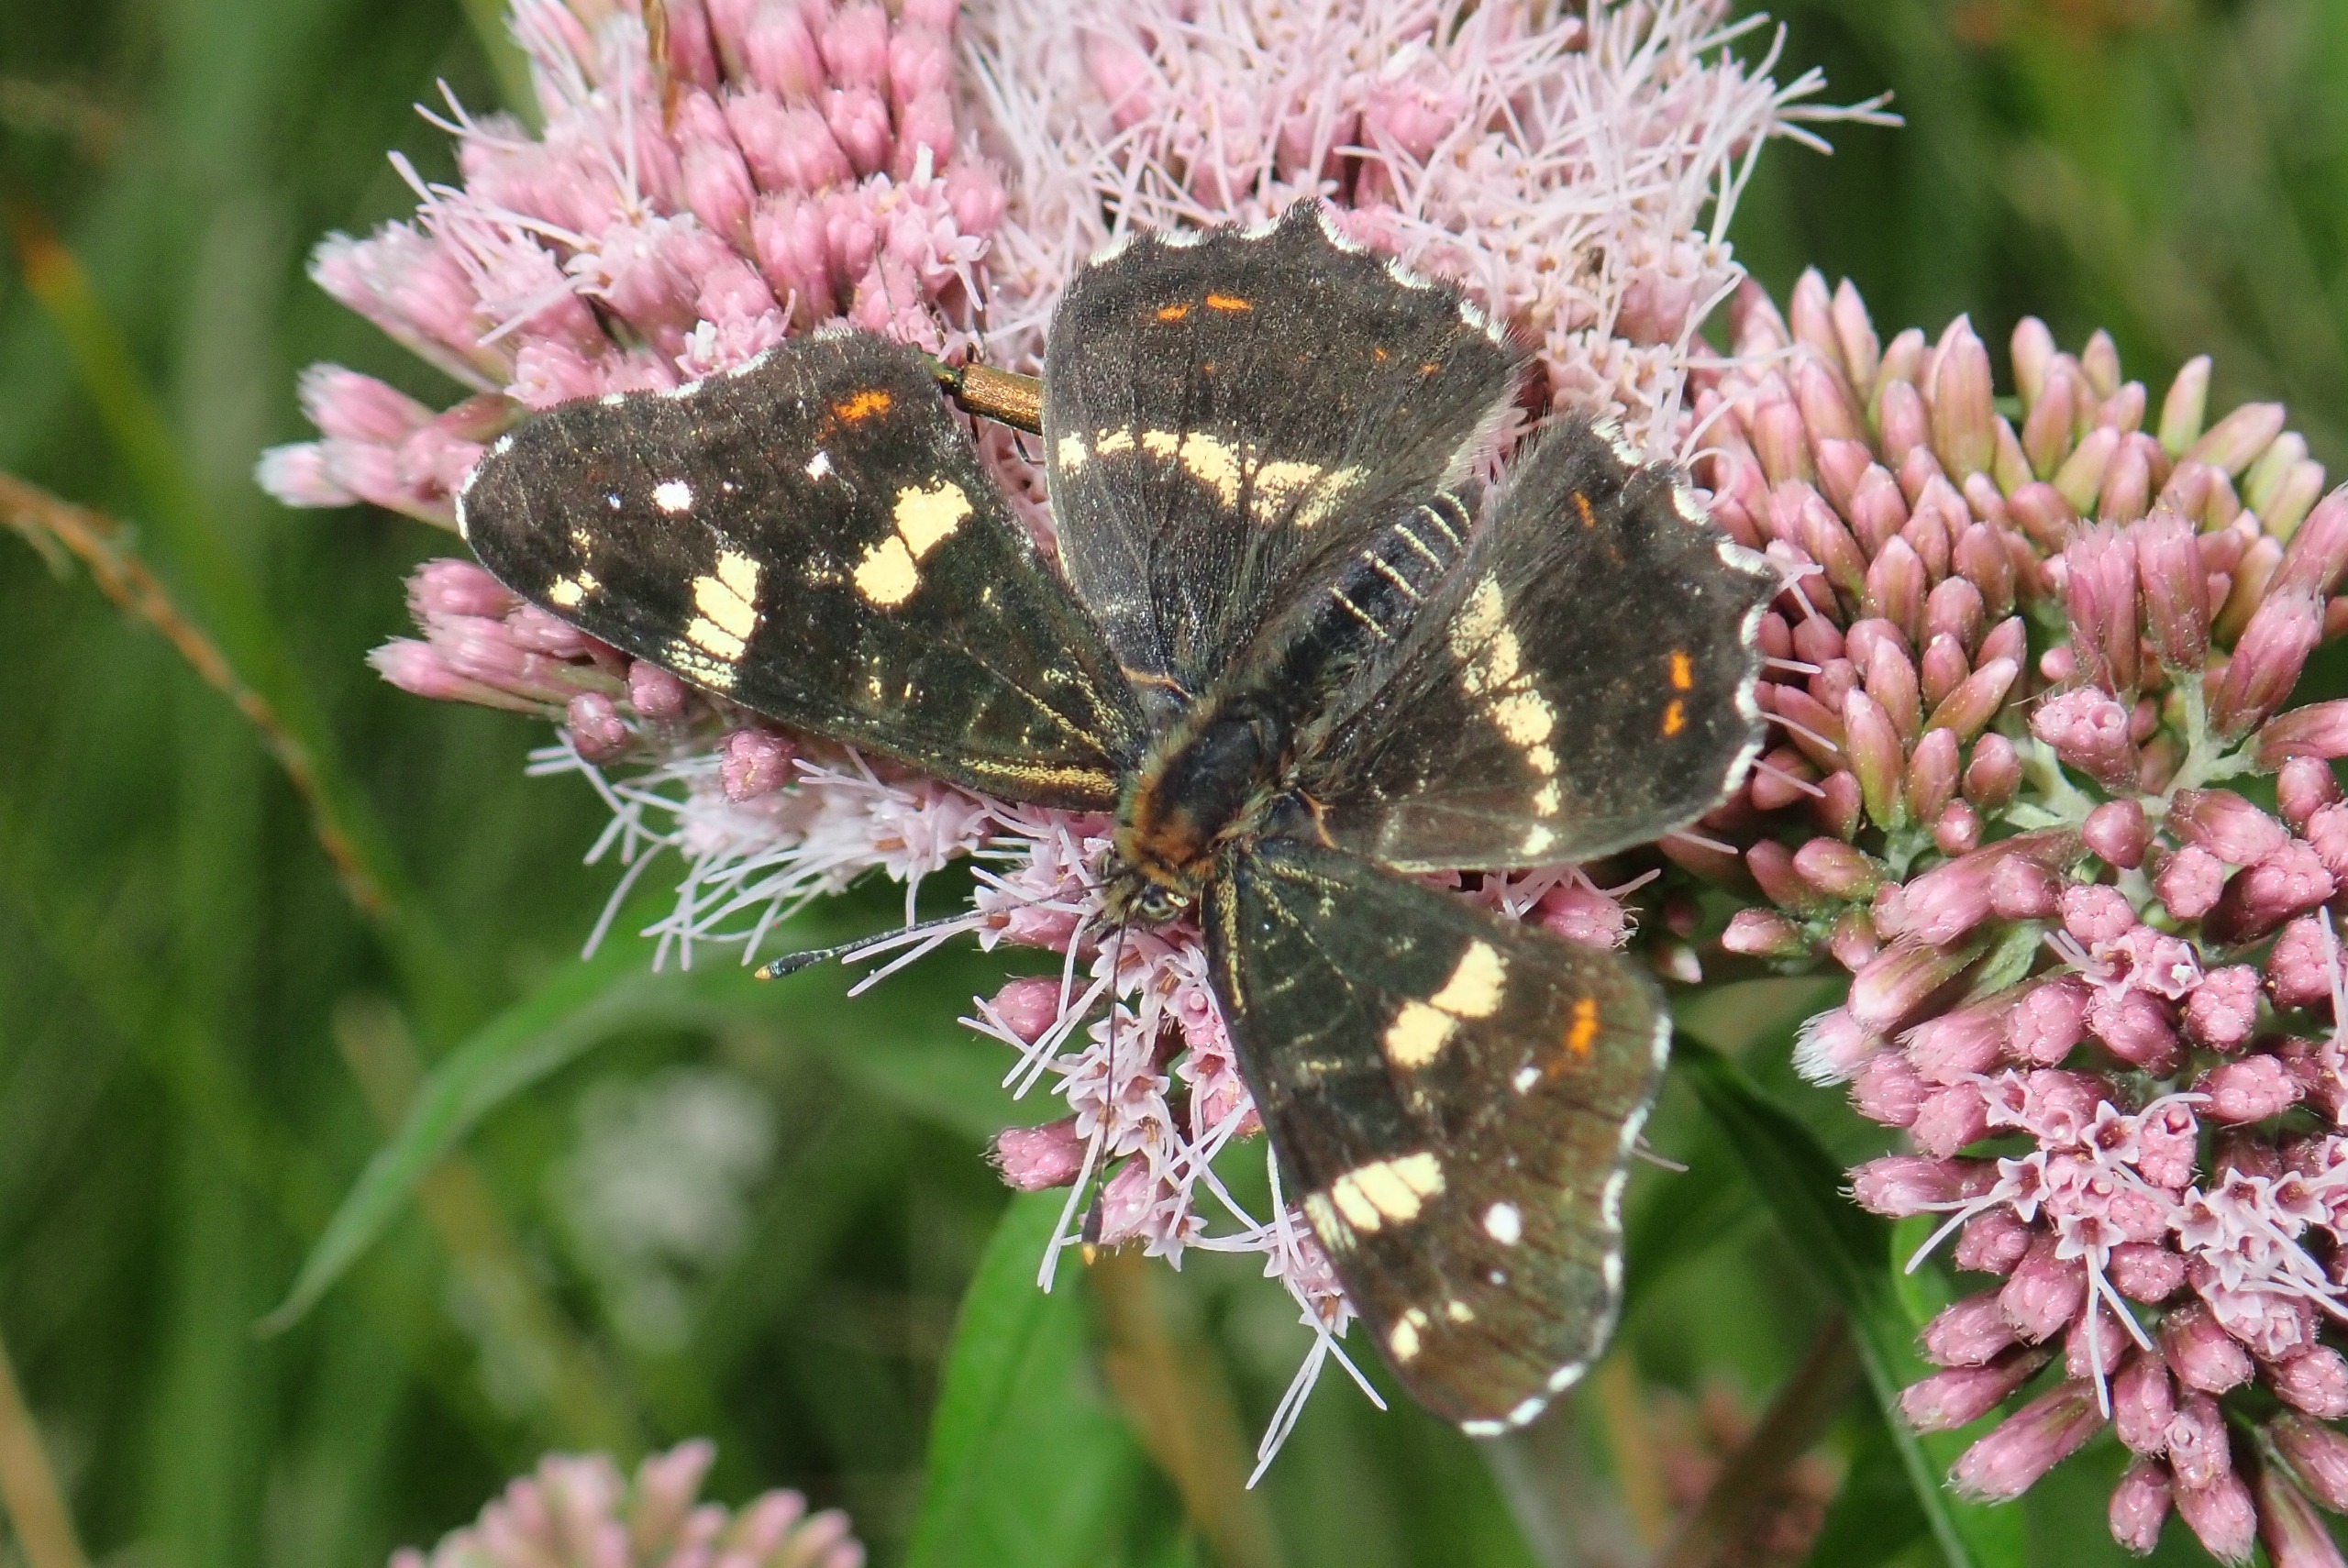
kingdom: Animalia
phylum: Arthropoda
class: Insecta
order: Lepidoptera
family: Nymphalidae
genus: Araschnia
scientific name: Araschnia levana
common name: Nældesommerfugl
